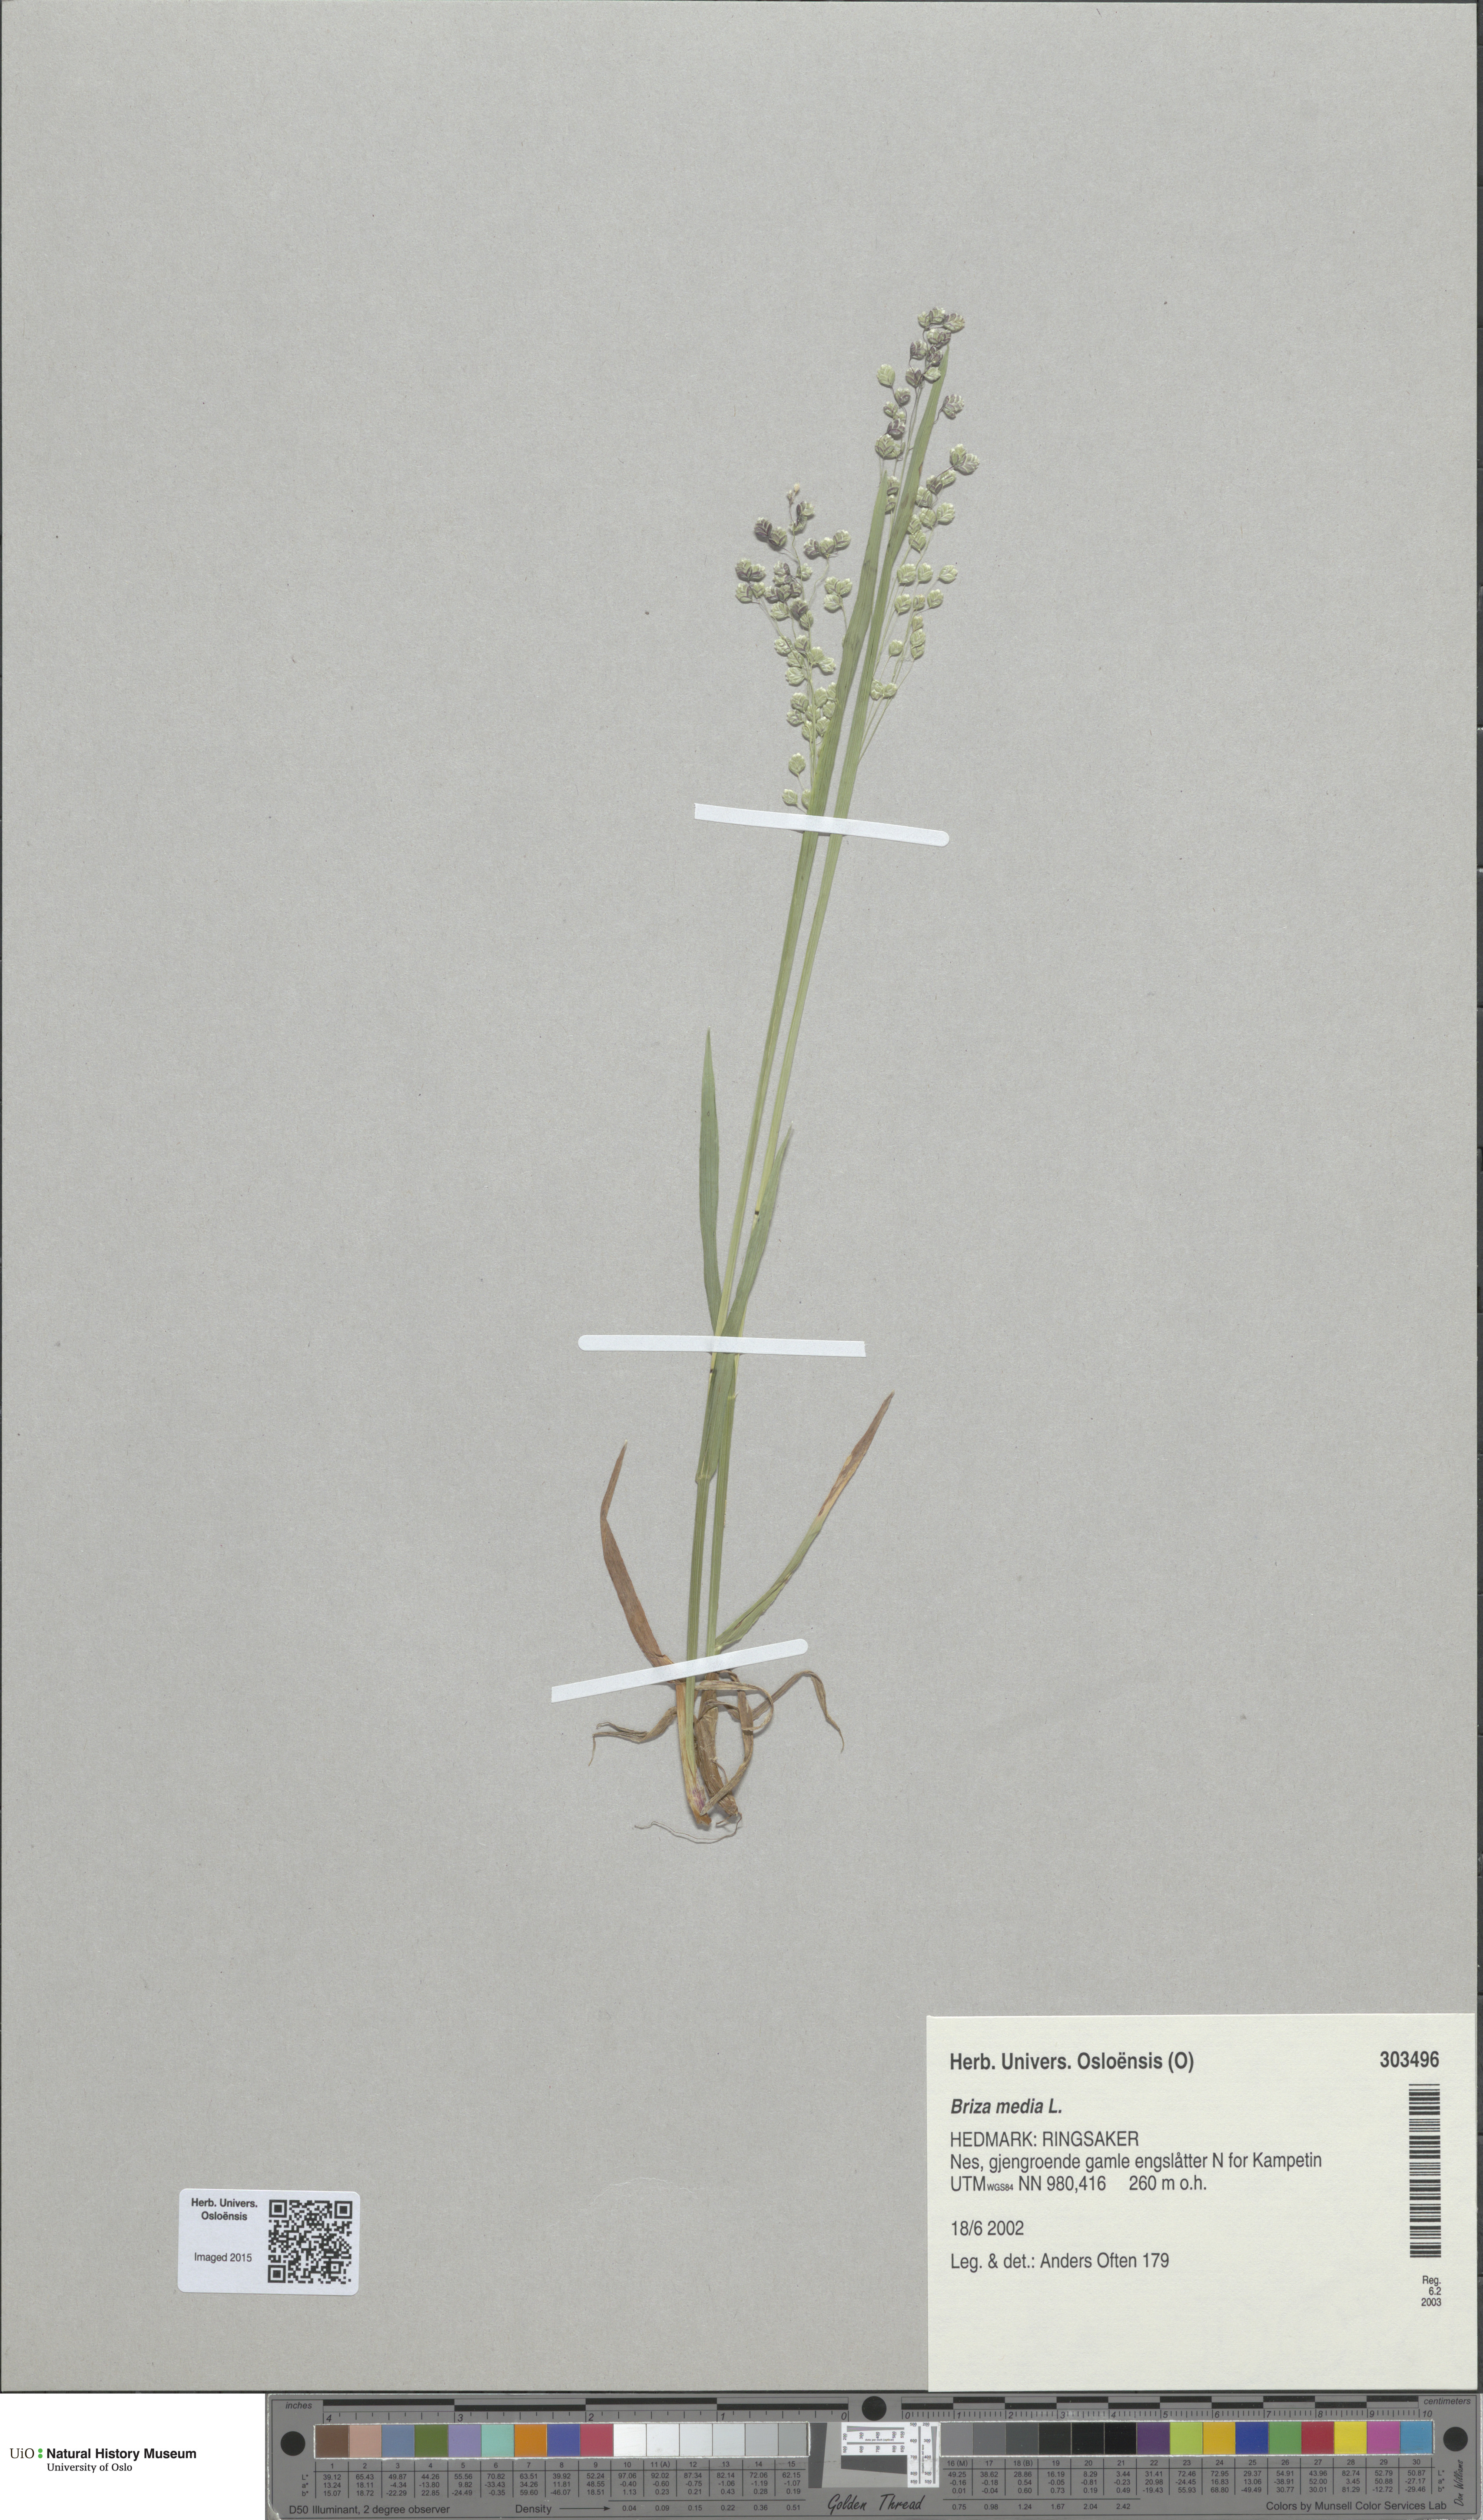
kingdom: Plantae
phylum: Tracheophyta
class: Liliopsida
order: Poales
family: Poaceae
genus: Briza
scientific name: Briza media
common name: Quaking grass
